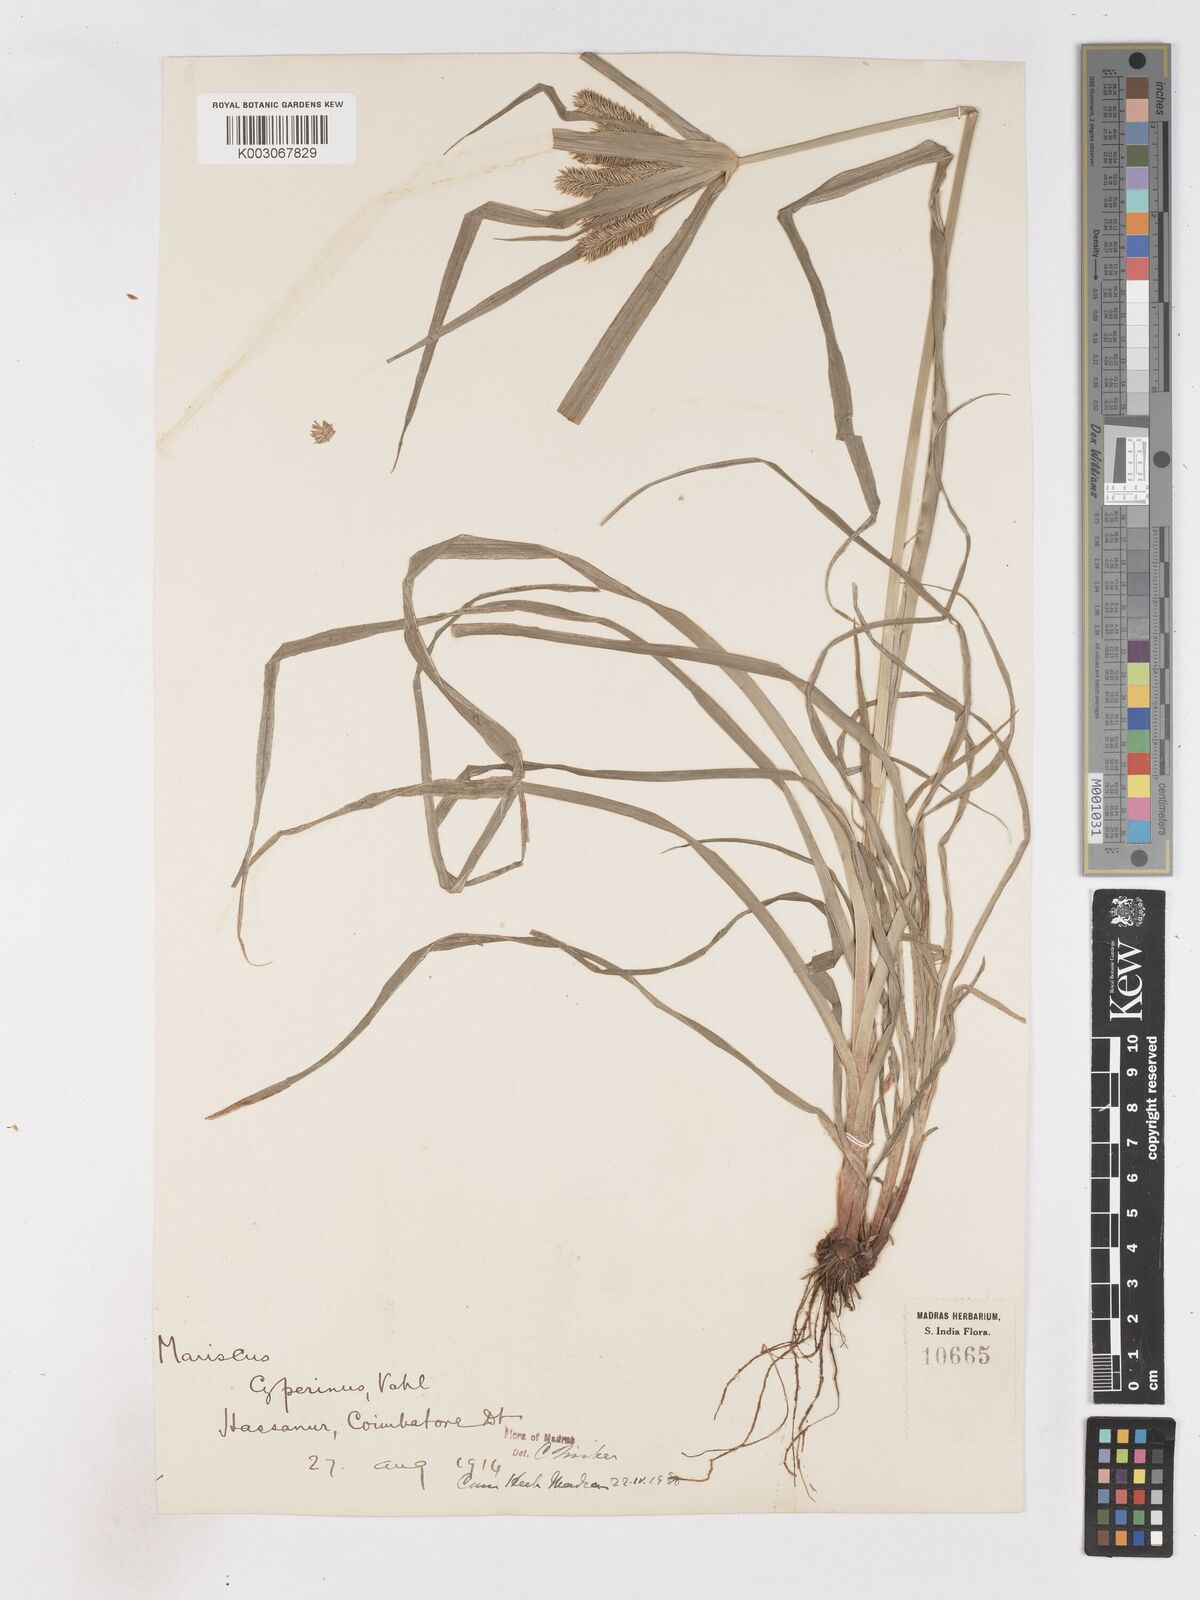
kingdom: Plantae
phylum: Tracheophyta
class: Liliopsida
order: Poales
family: Cyperaceae
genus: Cyperus
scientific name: Cyperus cyperoides
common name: Pacific island flat sedge
